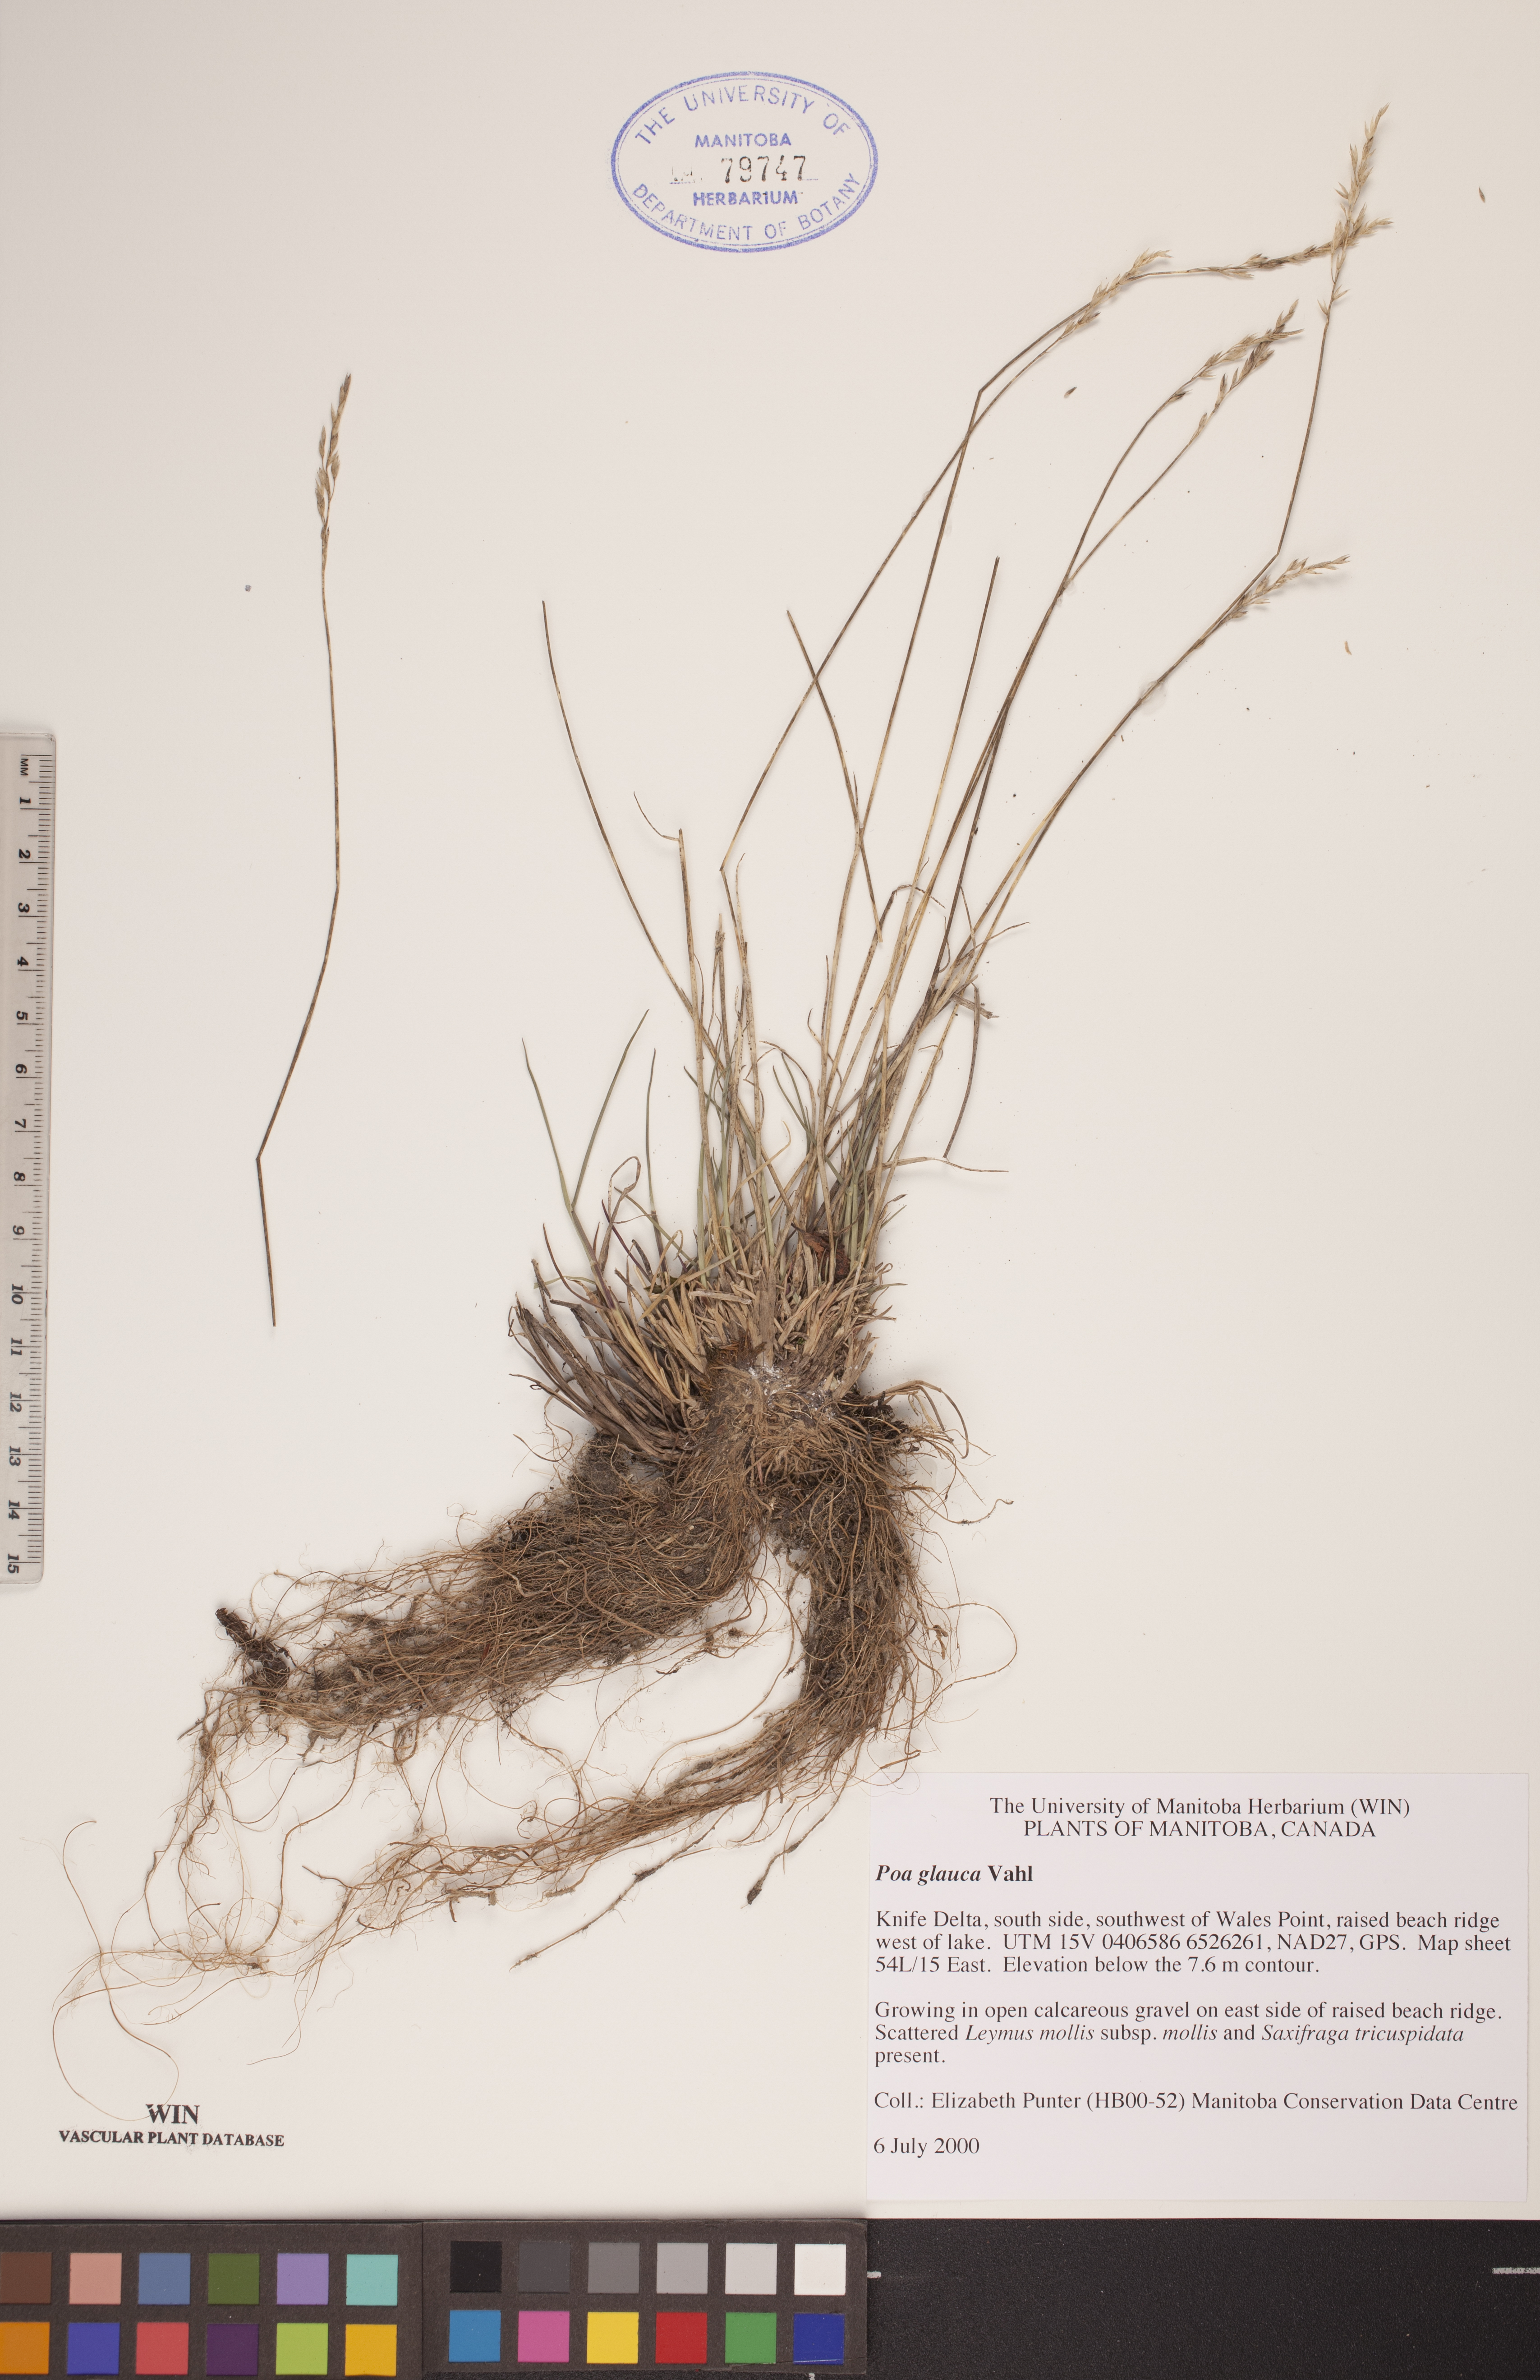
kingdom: Plantae
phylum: Tracheophyta
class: Liliopsida
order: Poales
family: Poaceae
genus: Poa
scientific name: Poa glauca
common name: Glaucous bluegrass
